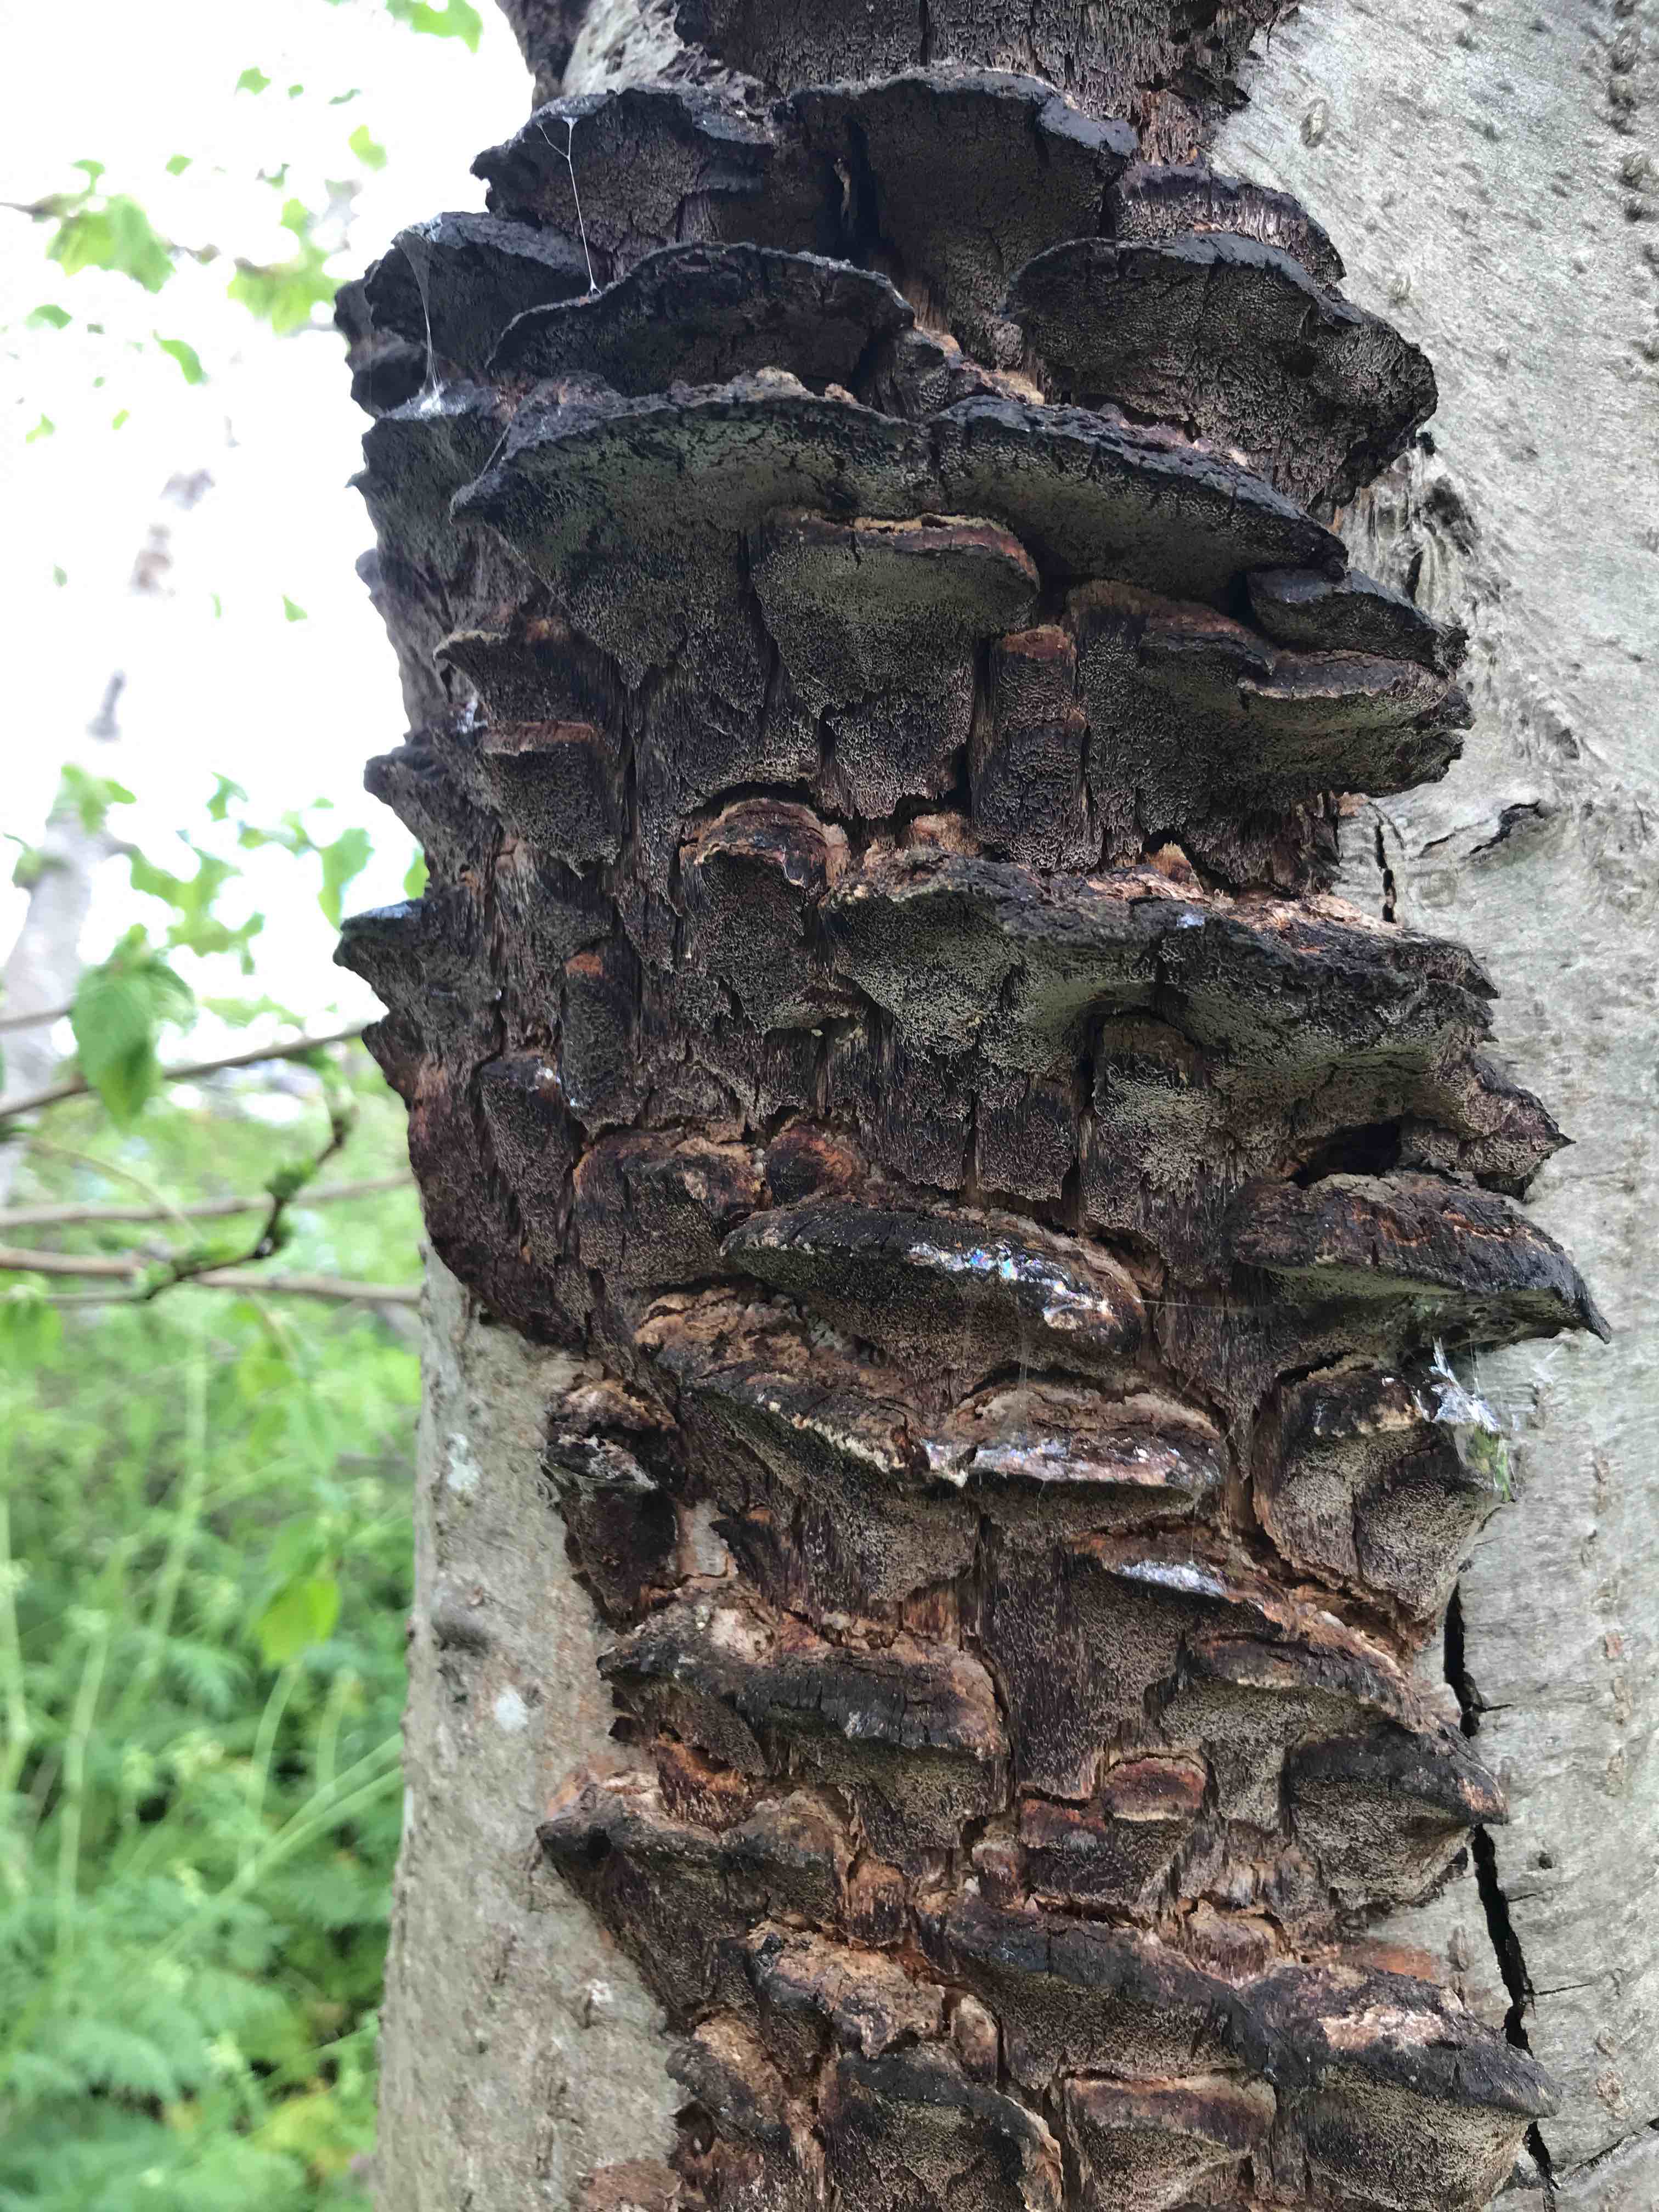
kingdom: Fungi
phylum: Basidiomycota
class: Agaricomycetes
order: Hymenochaetales
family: Hymenochaetaceae
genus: Xanthoporia
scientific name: Xanthoporia radiata
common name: elle-spejlporesvamp
